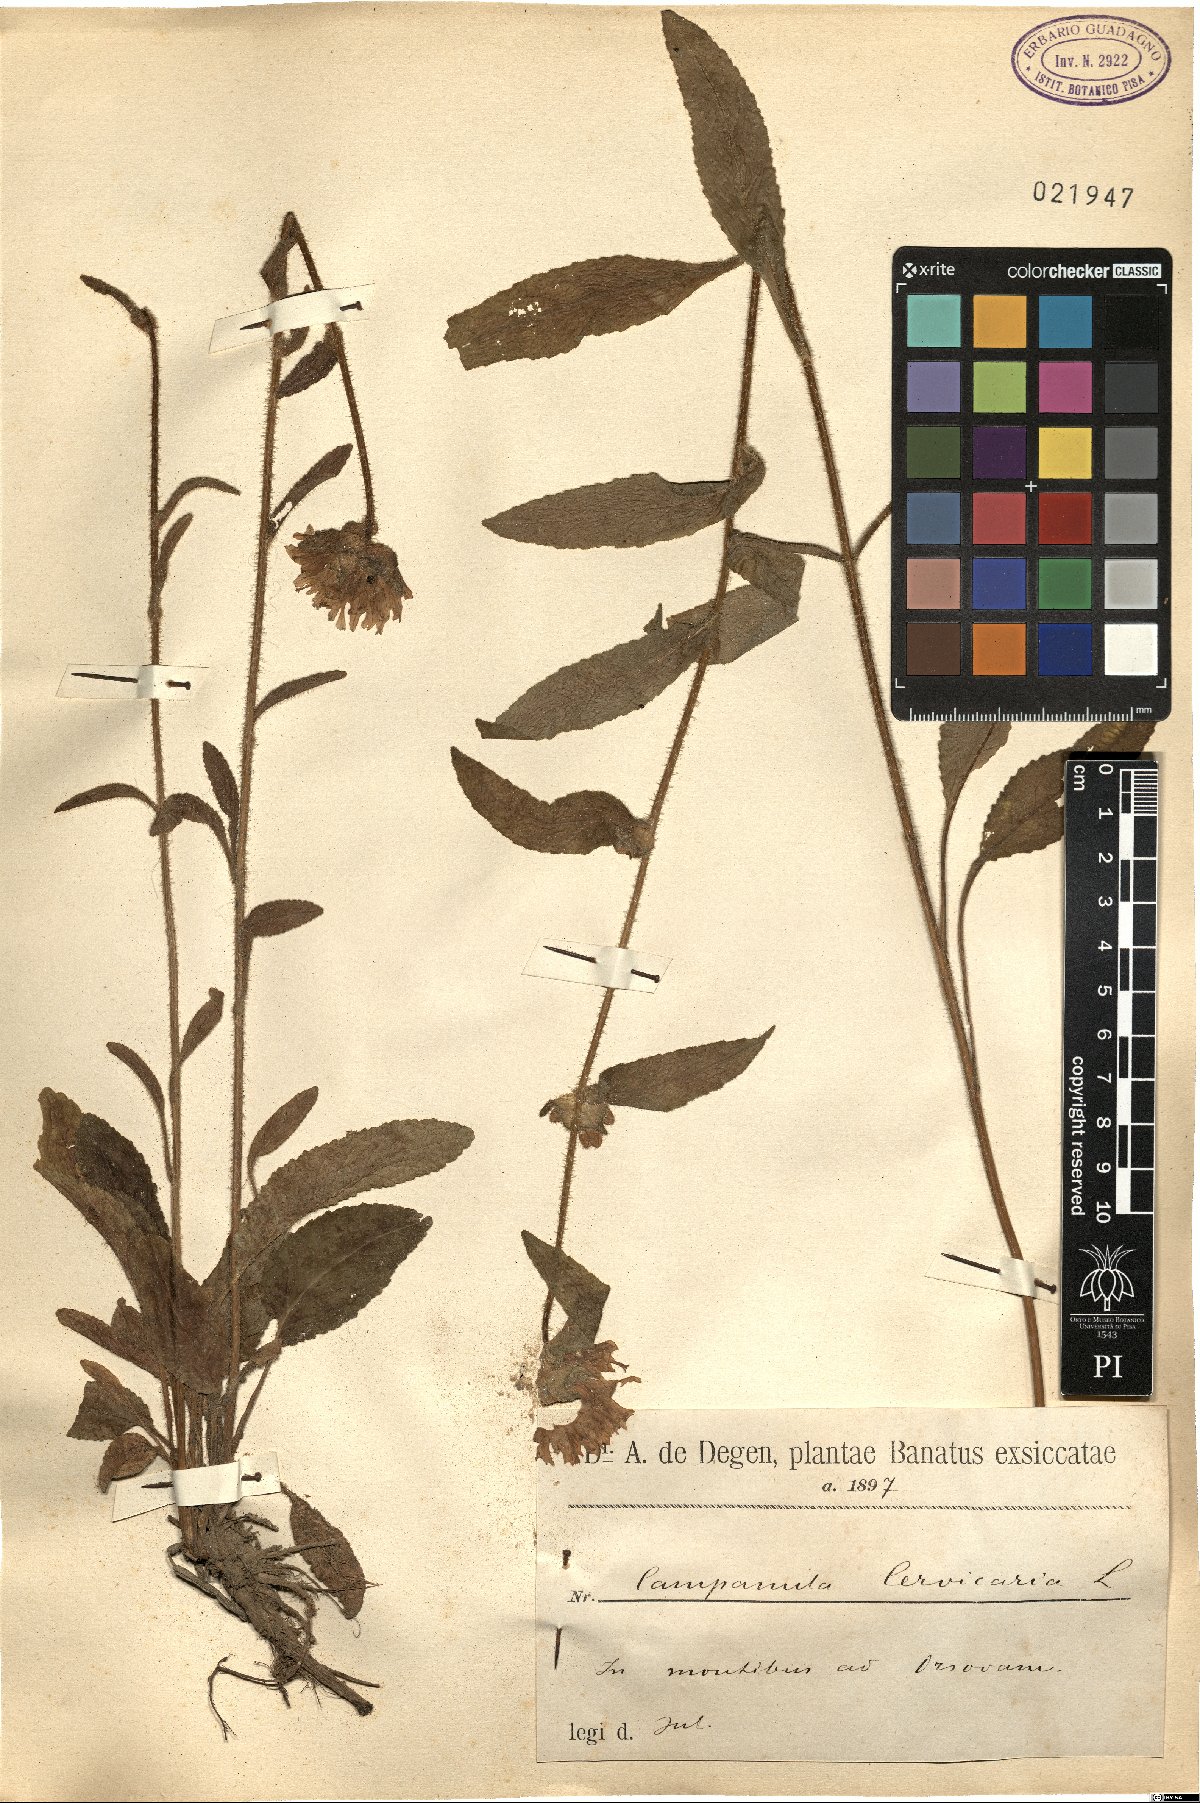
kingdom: Plantae
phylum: Tracheophyta
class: Magnoliopsida
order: Asterales
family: Campanulaceae
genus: Campanula
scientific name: Campanula cervicaria
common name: Bristly bellflower
